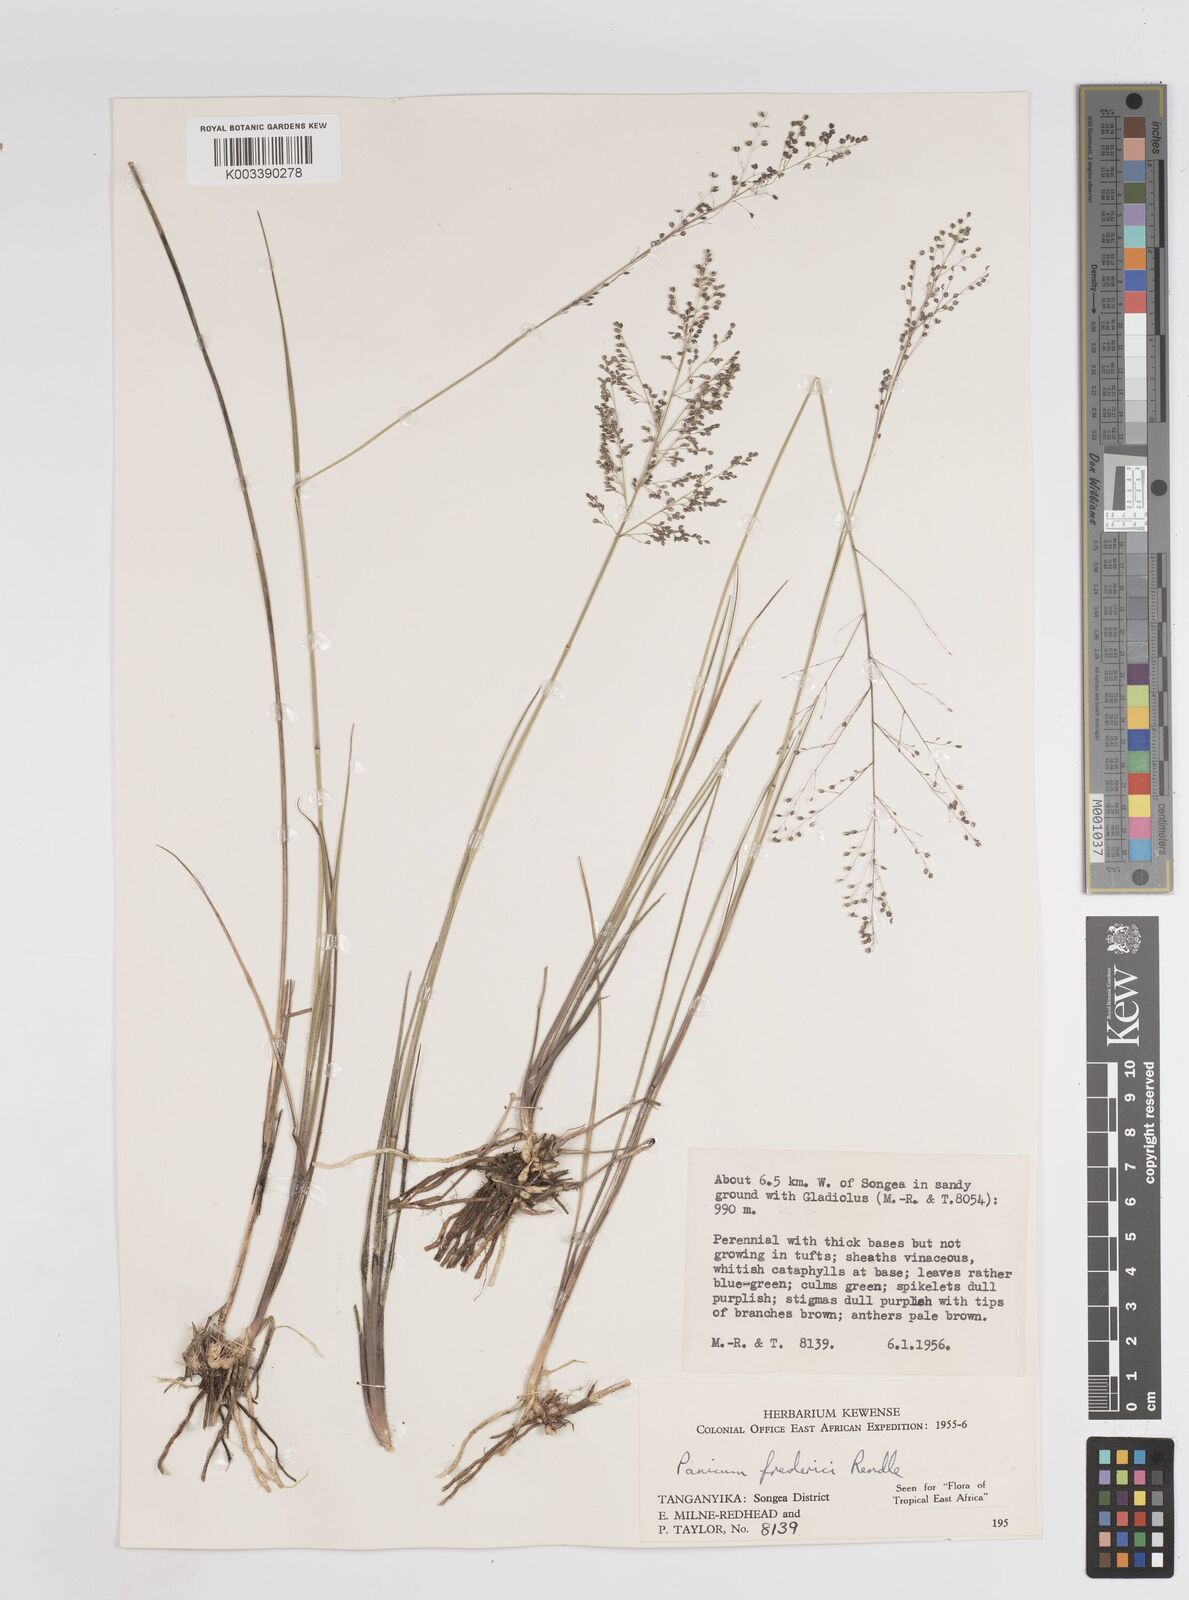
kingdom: Plantae
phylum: Tracheophyta
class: Liliopsida
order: Poales
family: Poaceae
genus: Trichanthecium
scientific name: Trichanthecium brazzavillense
